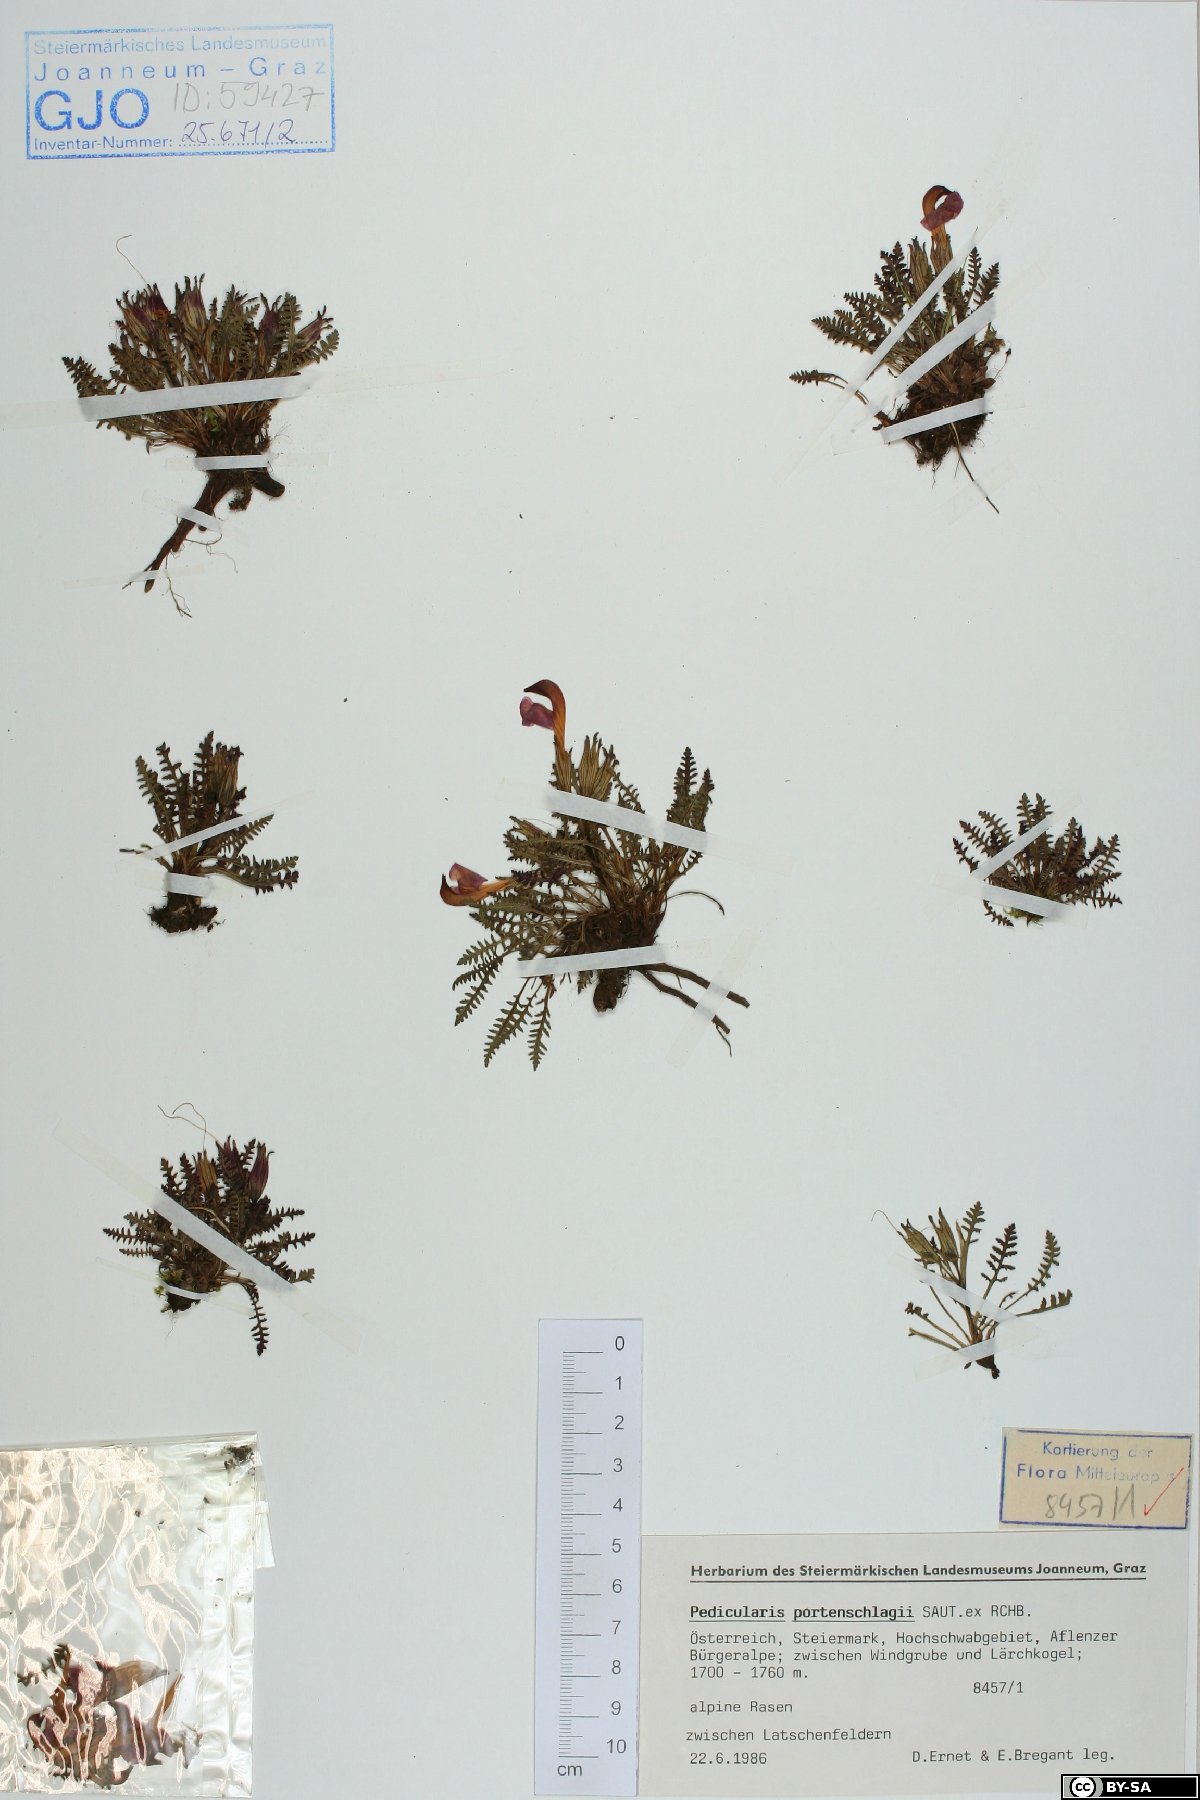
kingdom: Plantae
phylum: Tracheophyta
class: Magnoliopsida
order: Lamiales
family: Orobanchaceae
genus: Pedicularis
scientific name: Pedicularis portenschlagii
